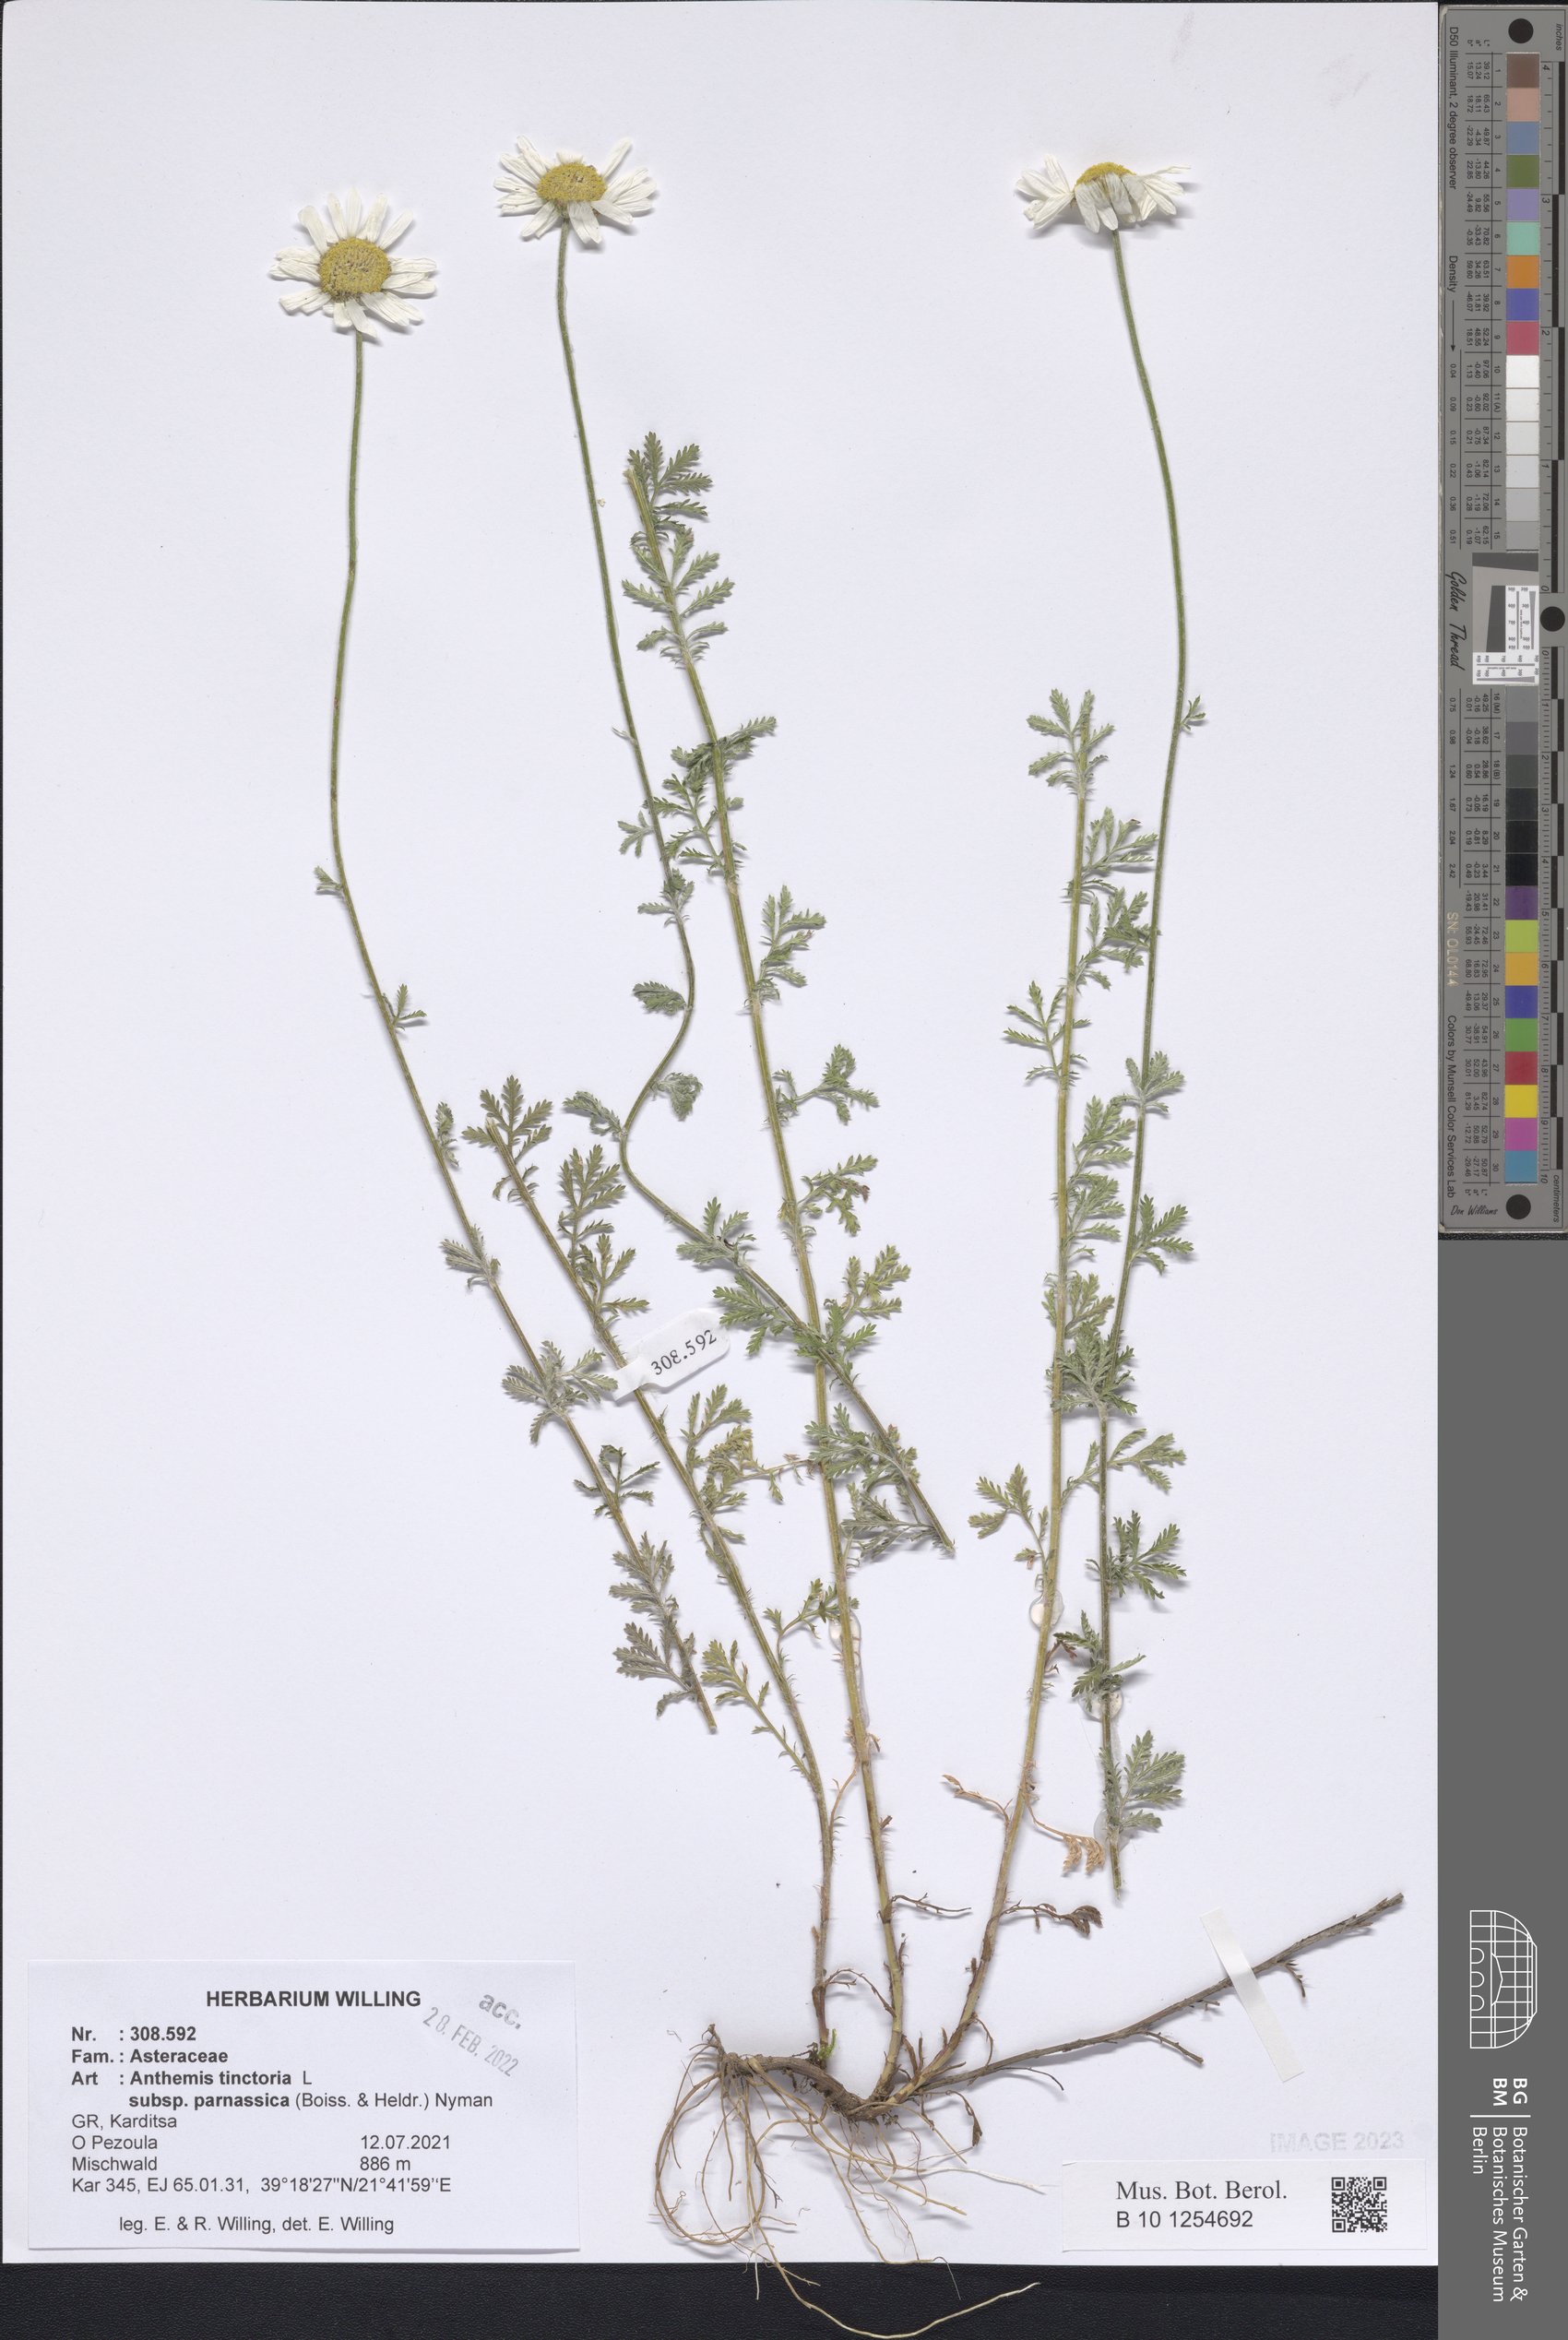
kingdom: Plantae
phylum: Tracheophyta
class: Magnoliopsida
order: Asterales
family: Asteraceae
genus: Cota
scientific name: Cota tinctoria
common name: Golden chamomile
